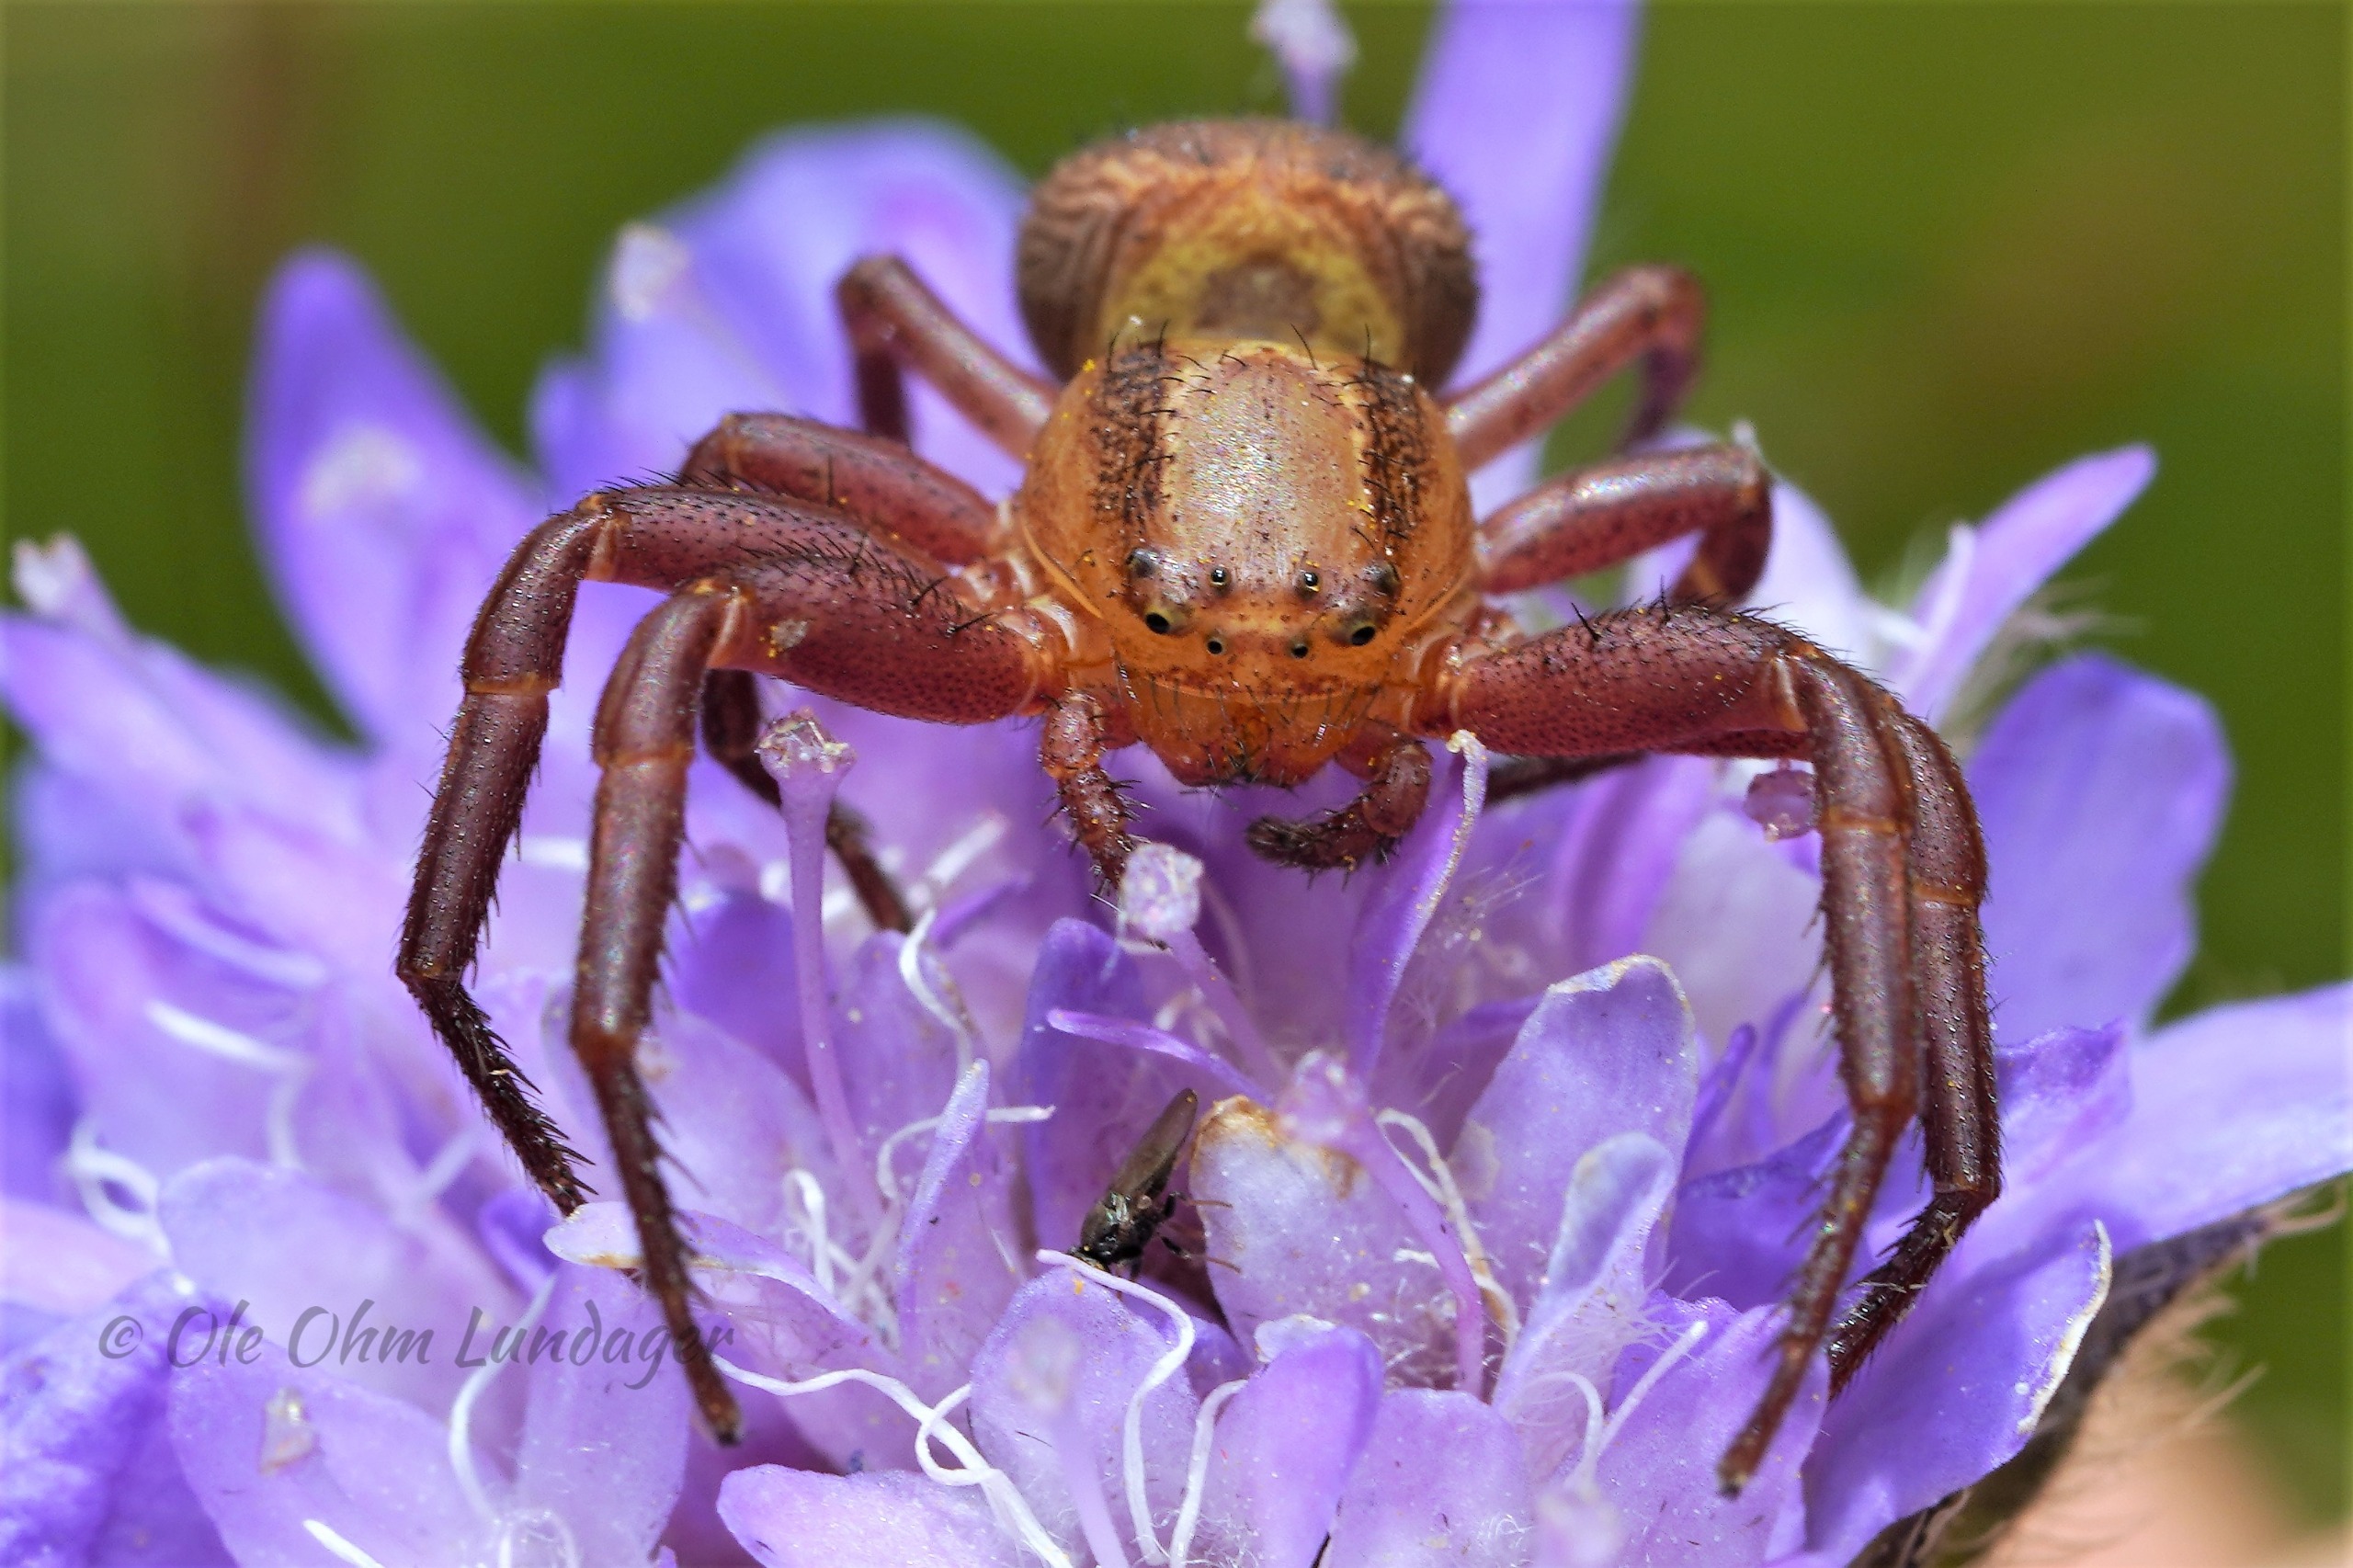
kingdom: Animalia
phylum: Arthropoda
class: Arachnida
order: Araneae
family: Thomisidae
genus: Xysticus
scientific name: Xysticus bifasciatus
